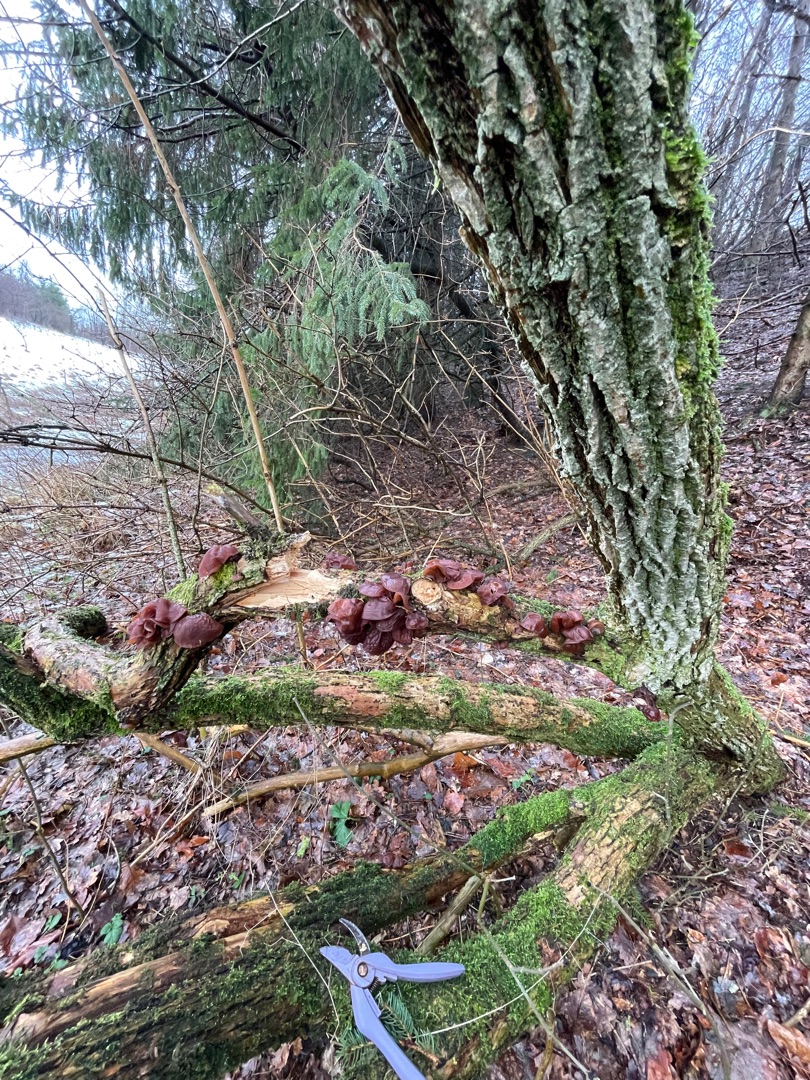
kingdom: Fungi
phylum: Basidiomycota
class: Agaricomycetes
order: Auriculariales
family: Auriculariaceae
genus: Auricularia
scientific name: Auricularia auricula-judae
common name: Almindelig judasøre
